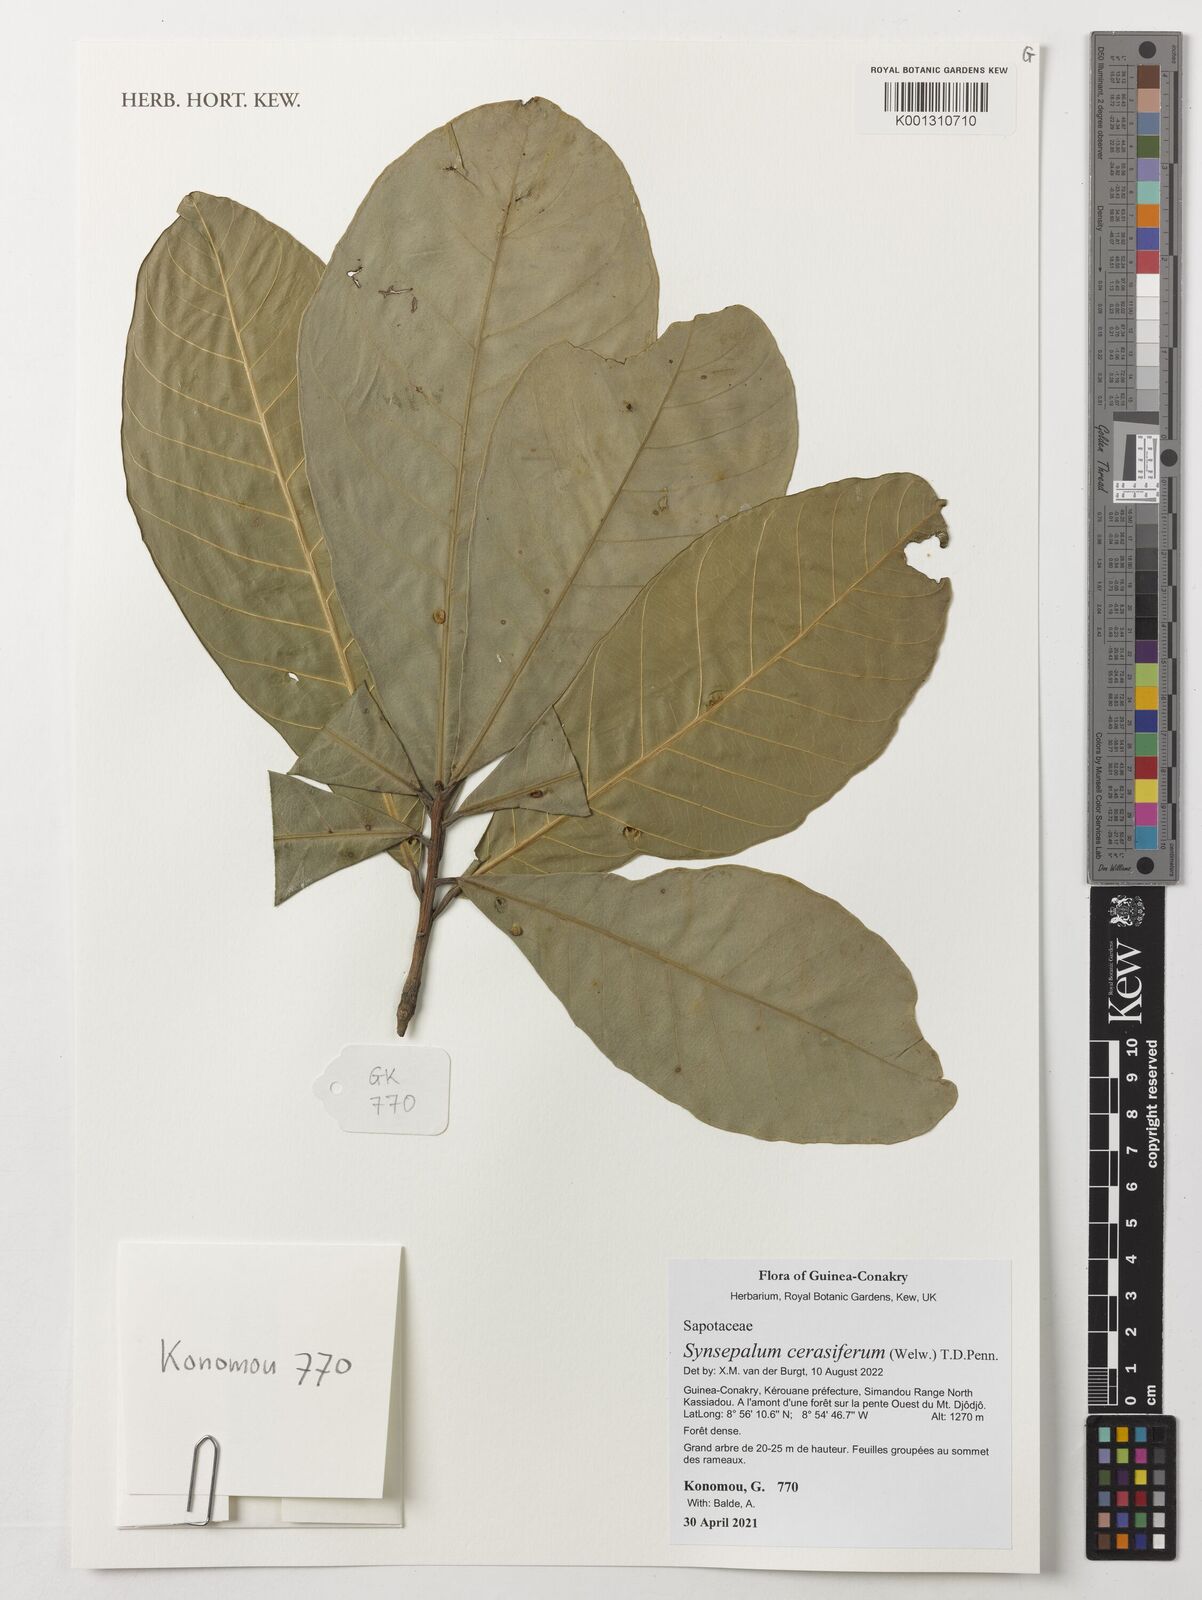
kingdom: Plantae
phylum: Tracheophyta
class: Magnoliopsida
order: Ericales
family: Sapotaceae
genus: Synsepalum
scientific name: Synsepalum cerasiferum
